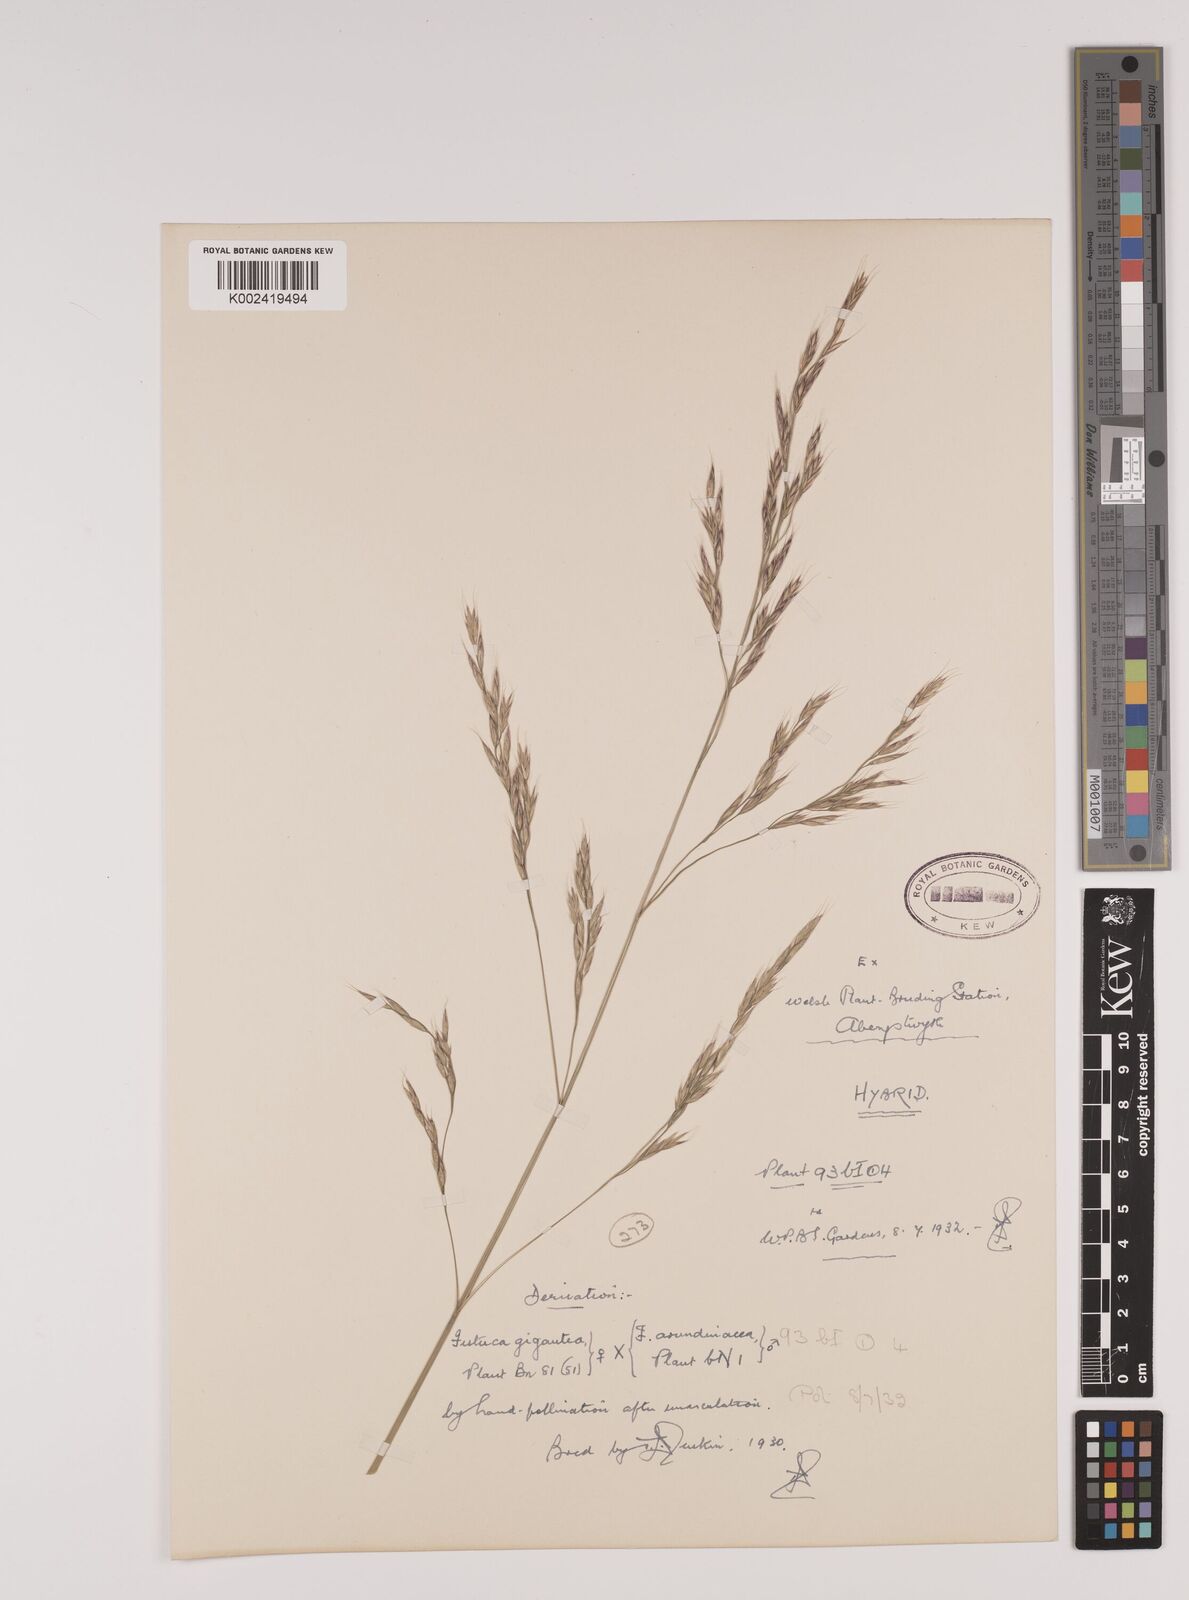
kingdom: Plantae
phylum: Tracheophyta
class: Liliopsida
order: Poales
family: Poaceae
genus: Lolium
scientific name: Lolium giganteum
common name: Giant fescue
